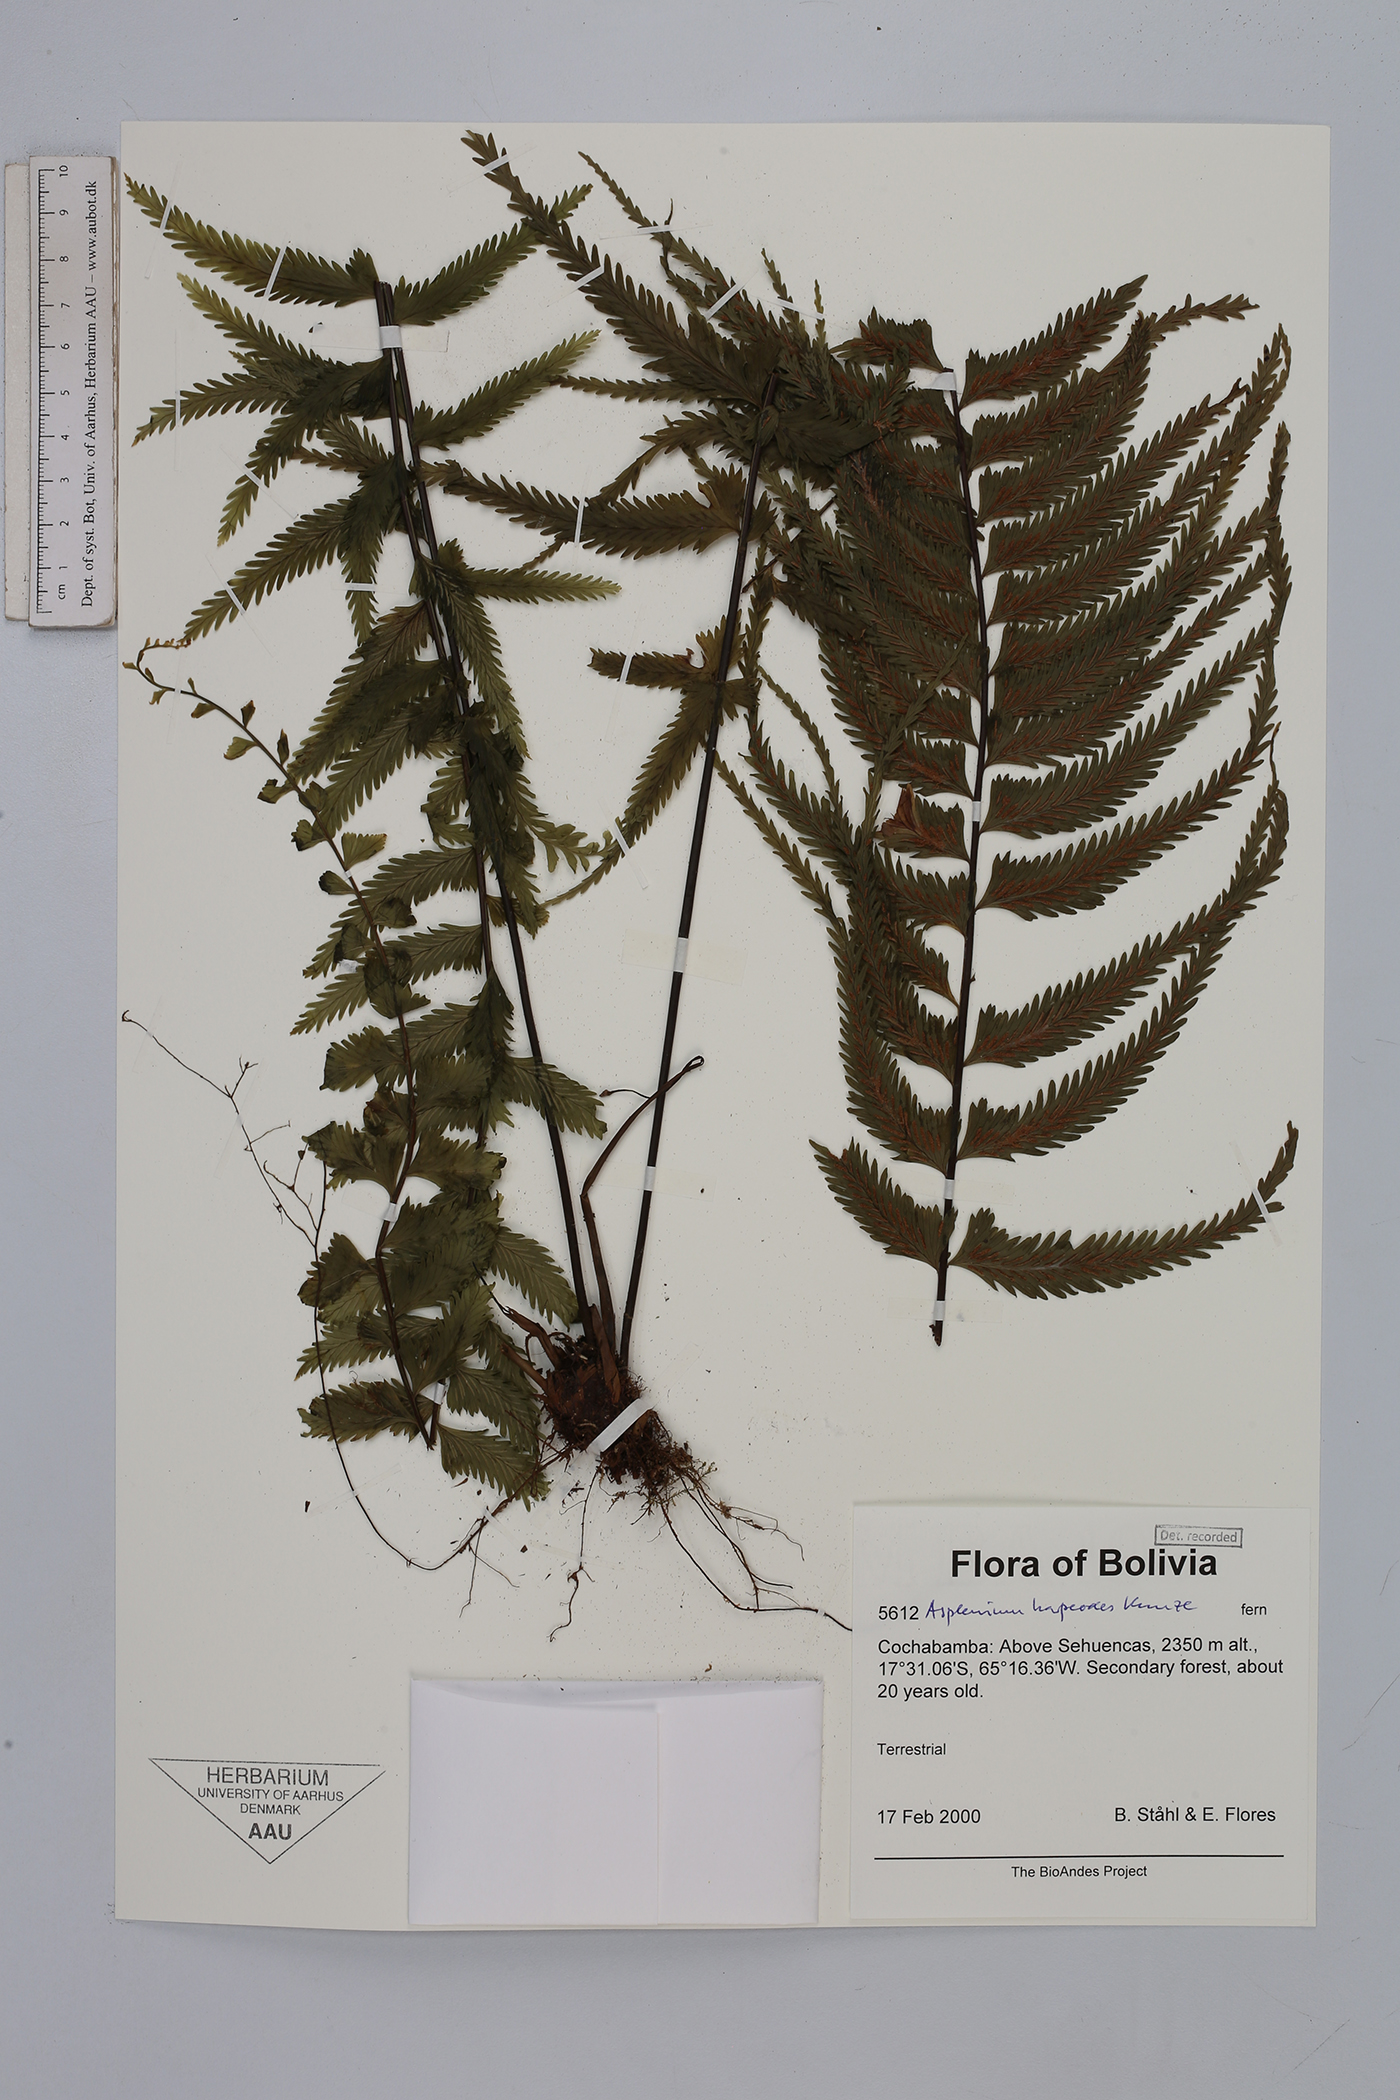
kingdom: Plantae
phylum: Tracheophyta
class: Polypodiopsida
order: Polypodiales
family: Aspleniaceae
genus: Asplenium
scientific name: Asplenium harpeodes
